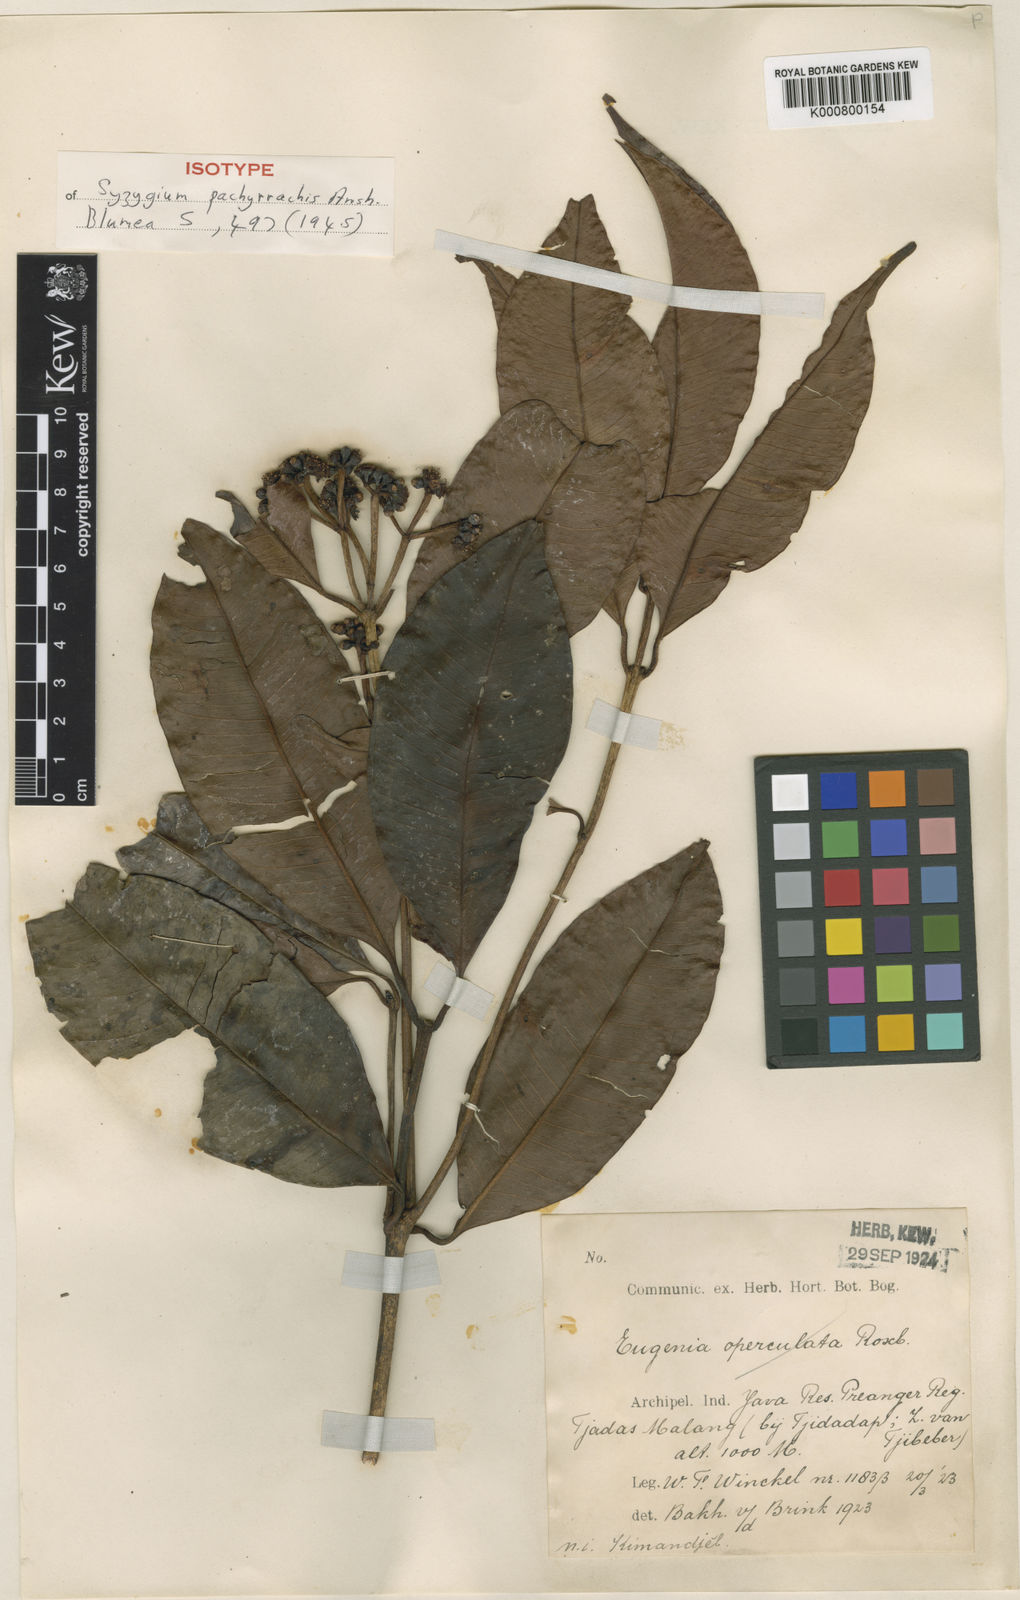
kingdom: Plantae
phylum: Tracheophyta
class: Magnoliopsida
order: Myrtales
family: Myrtaceae
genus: Syzygium
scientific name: Syzygium pachyrrachis
